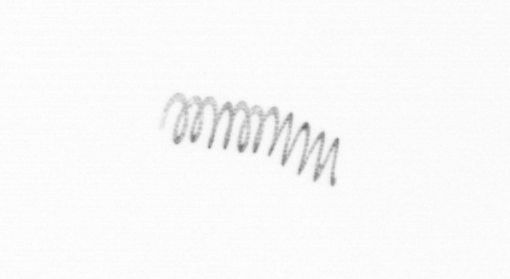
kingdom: Chromista
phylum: Ochrophyta
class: Bacillariophyceae
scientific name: Bacillariophyceae
